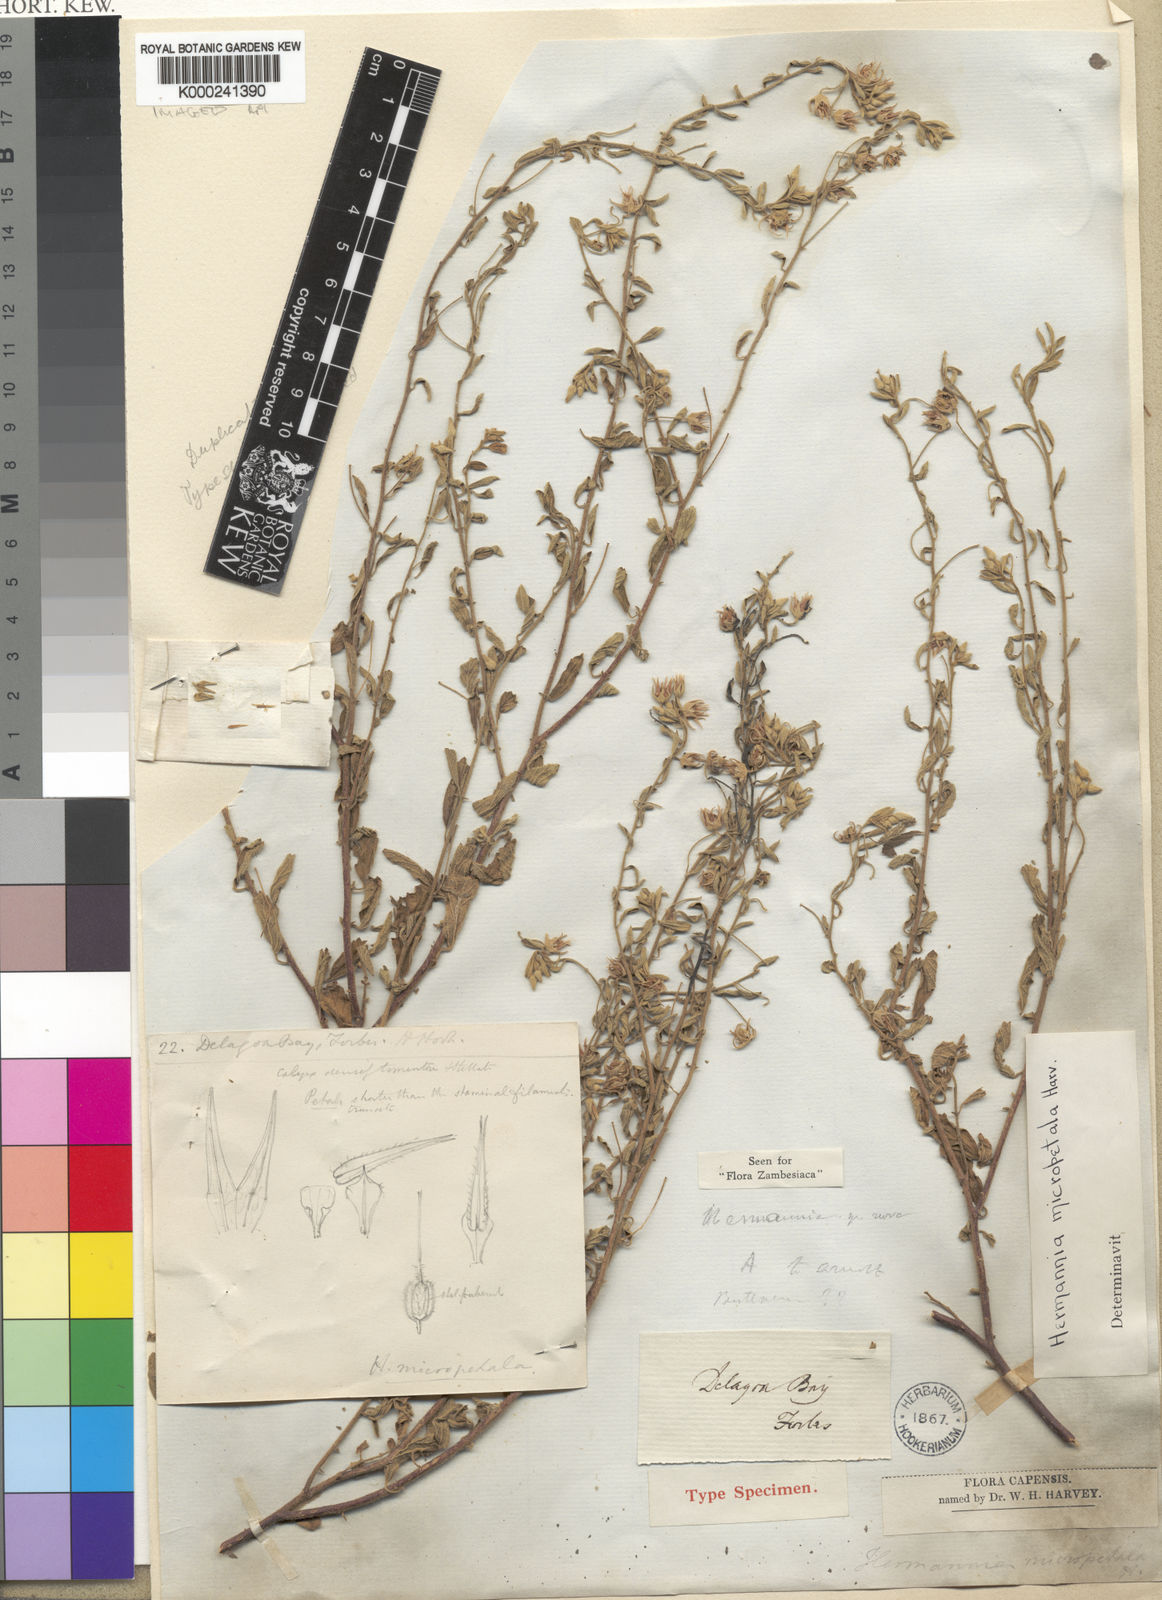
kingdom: Plantae
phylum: Tracheophyta
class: Magnoliopsida
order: Malvales
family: Malvaceae
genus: Hermannia
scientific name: Hermannia micropetala
